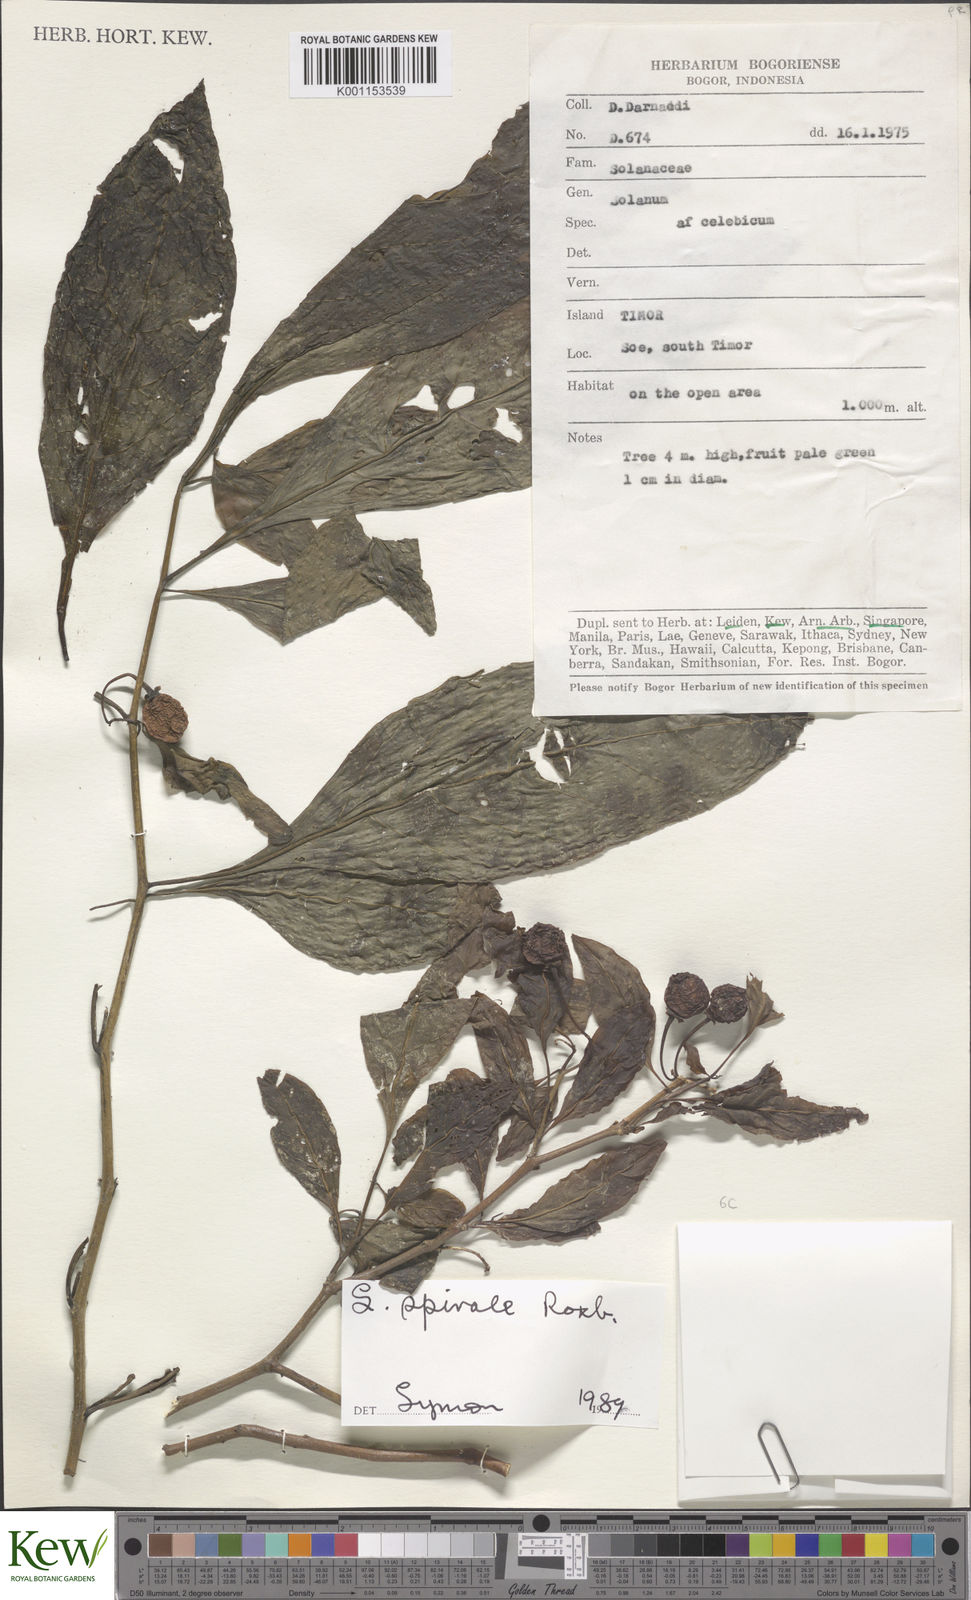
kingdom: Plantae
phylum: Tracheophyta
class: Magnoliopsida
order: Solanales
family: Solanaceae
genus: Solanum
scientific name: Solanum spirale
